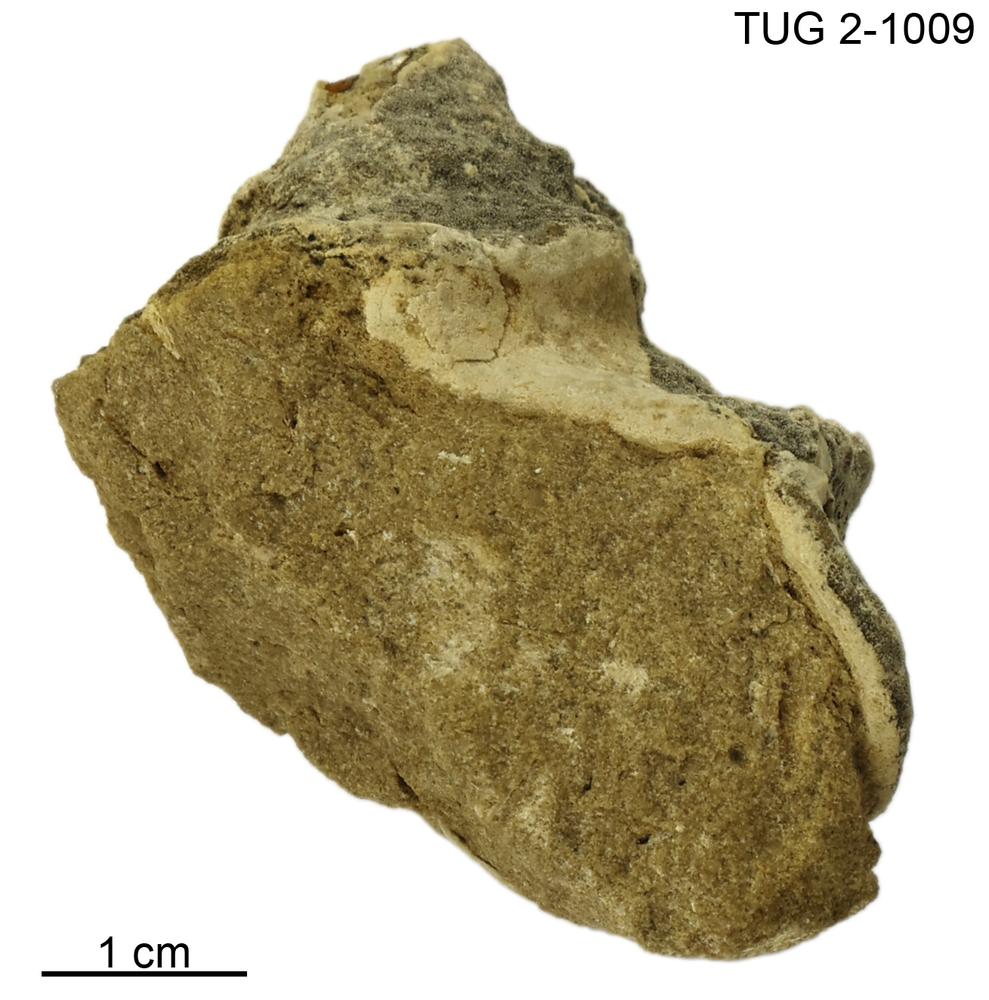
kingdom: Animalia
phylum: Mollusca
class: Gastropoda
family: Lophospiridae
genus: Ruedemannia
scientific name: Ruedemannia Worthenia borkholmiensis
